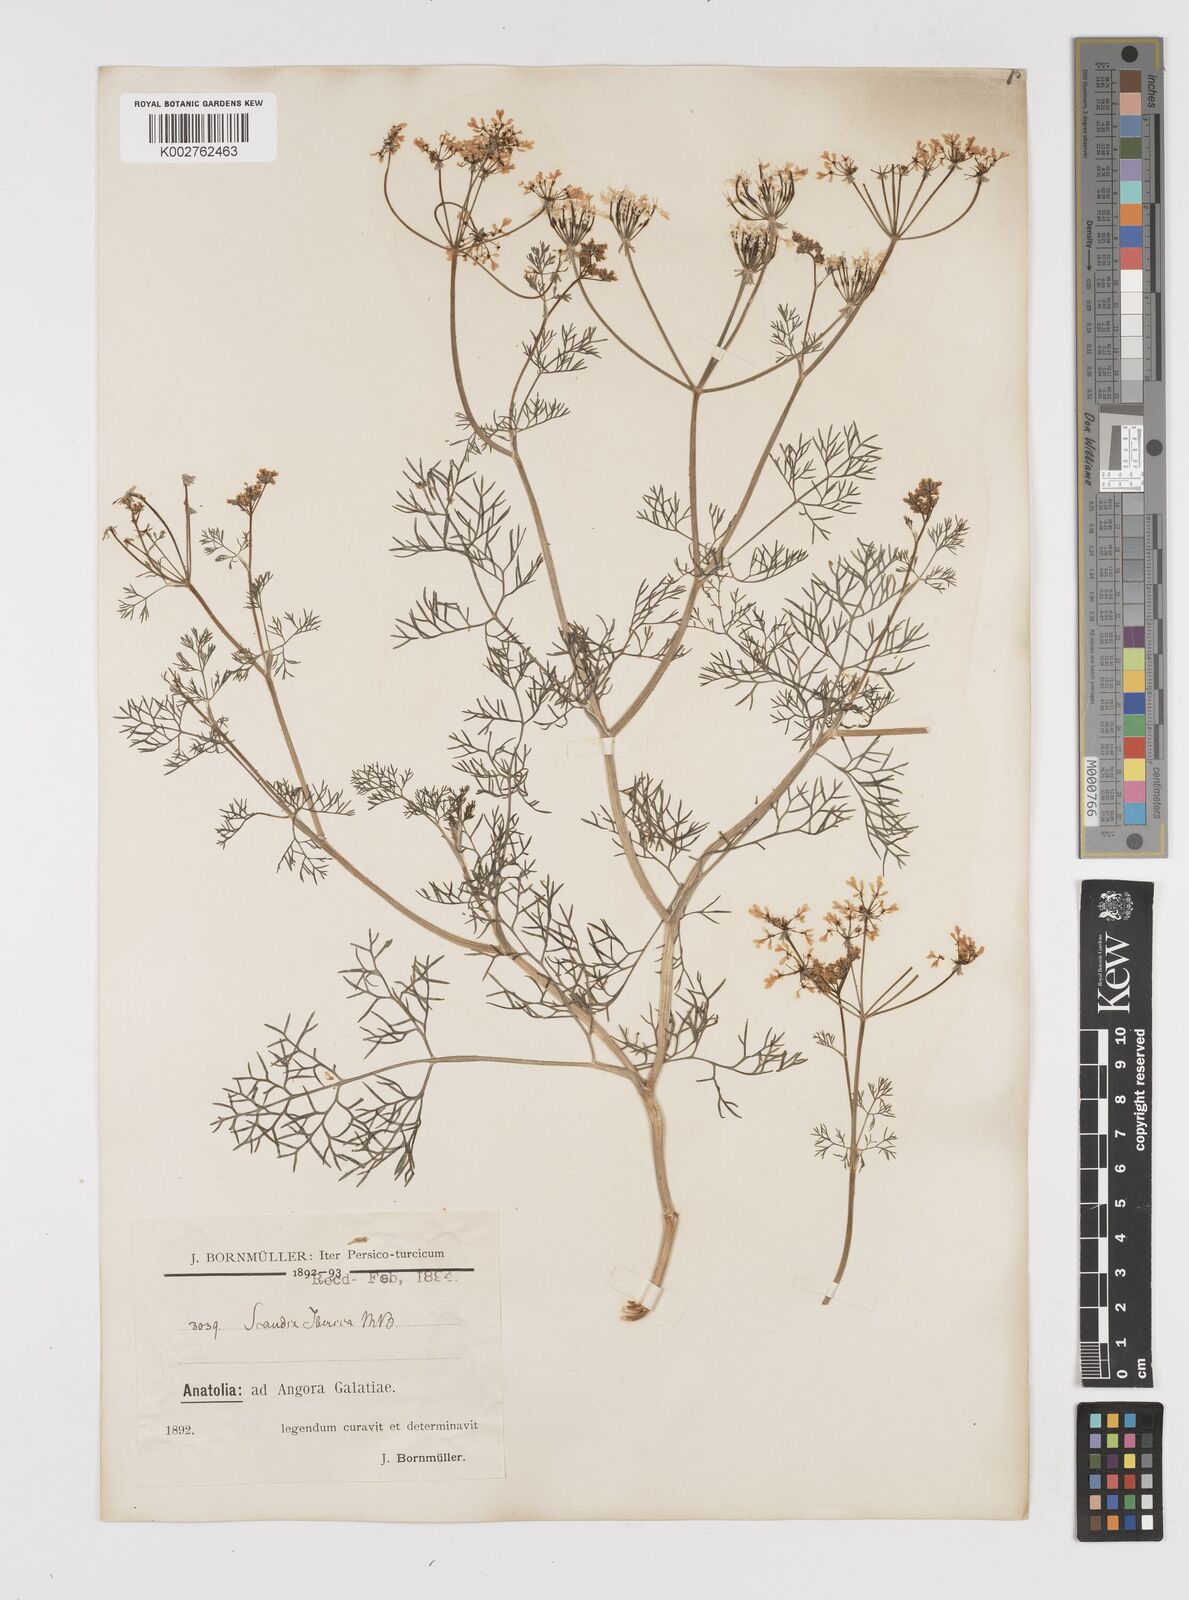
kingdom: Plantae
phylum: Tracheophyta
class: Magnoliopsida
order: Apiales
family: Apiaceae
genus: Scandix
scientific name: Scandix iberica
